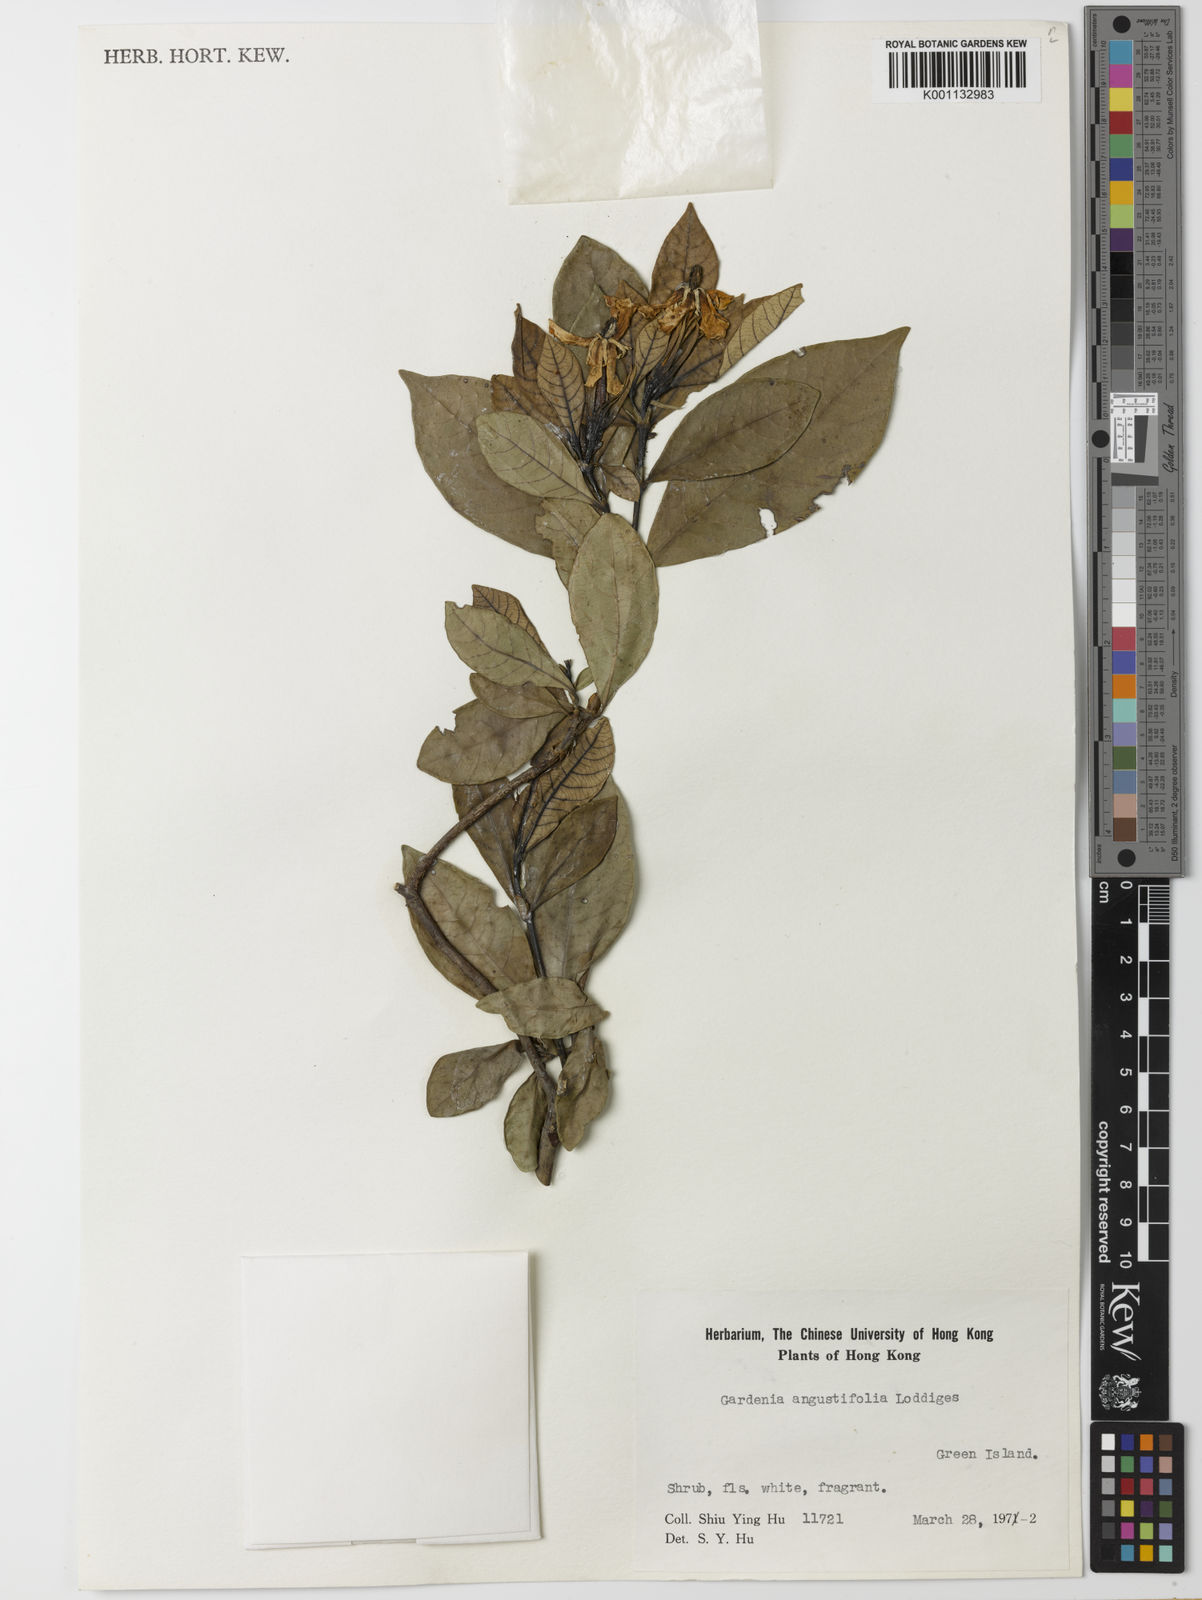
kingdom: Plantae
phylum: Tracheophyta
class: Magnoliopsida
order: Gentianales
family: Rubiaceae
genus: Gardenia
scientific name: Gardenia jasminoides
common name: Cape-jasmine
